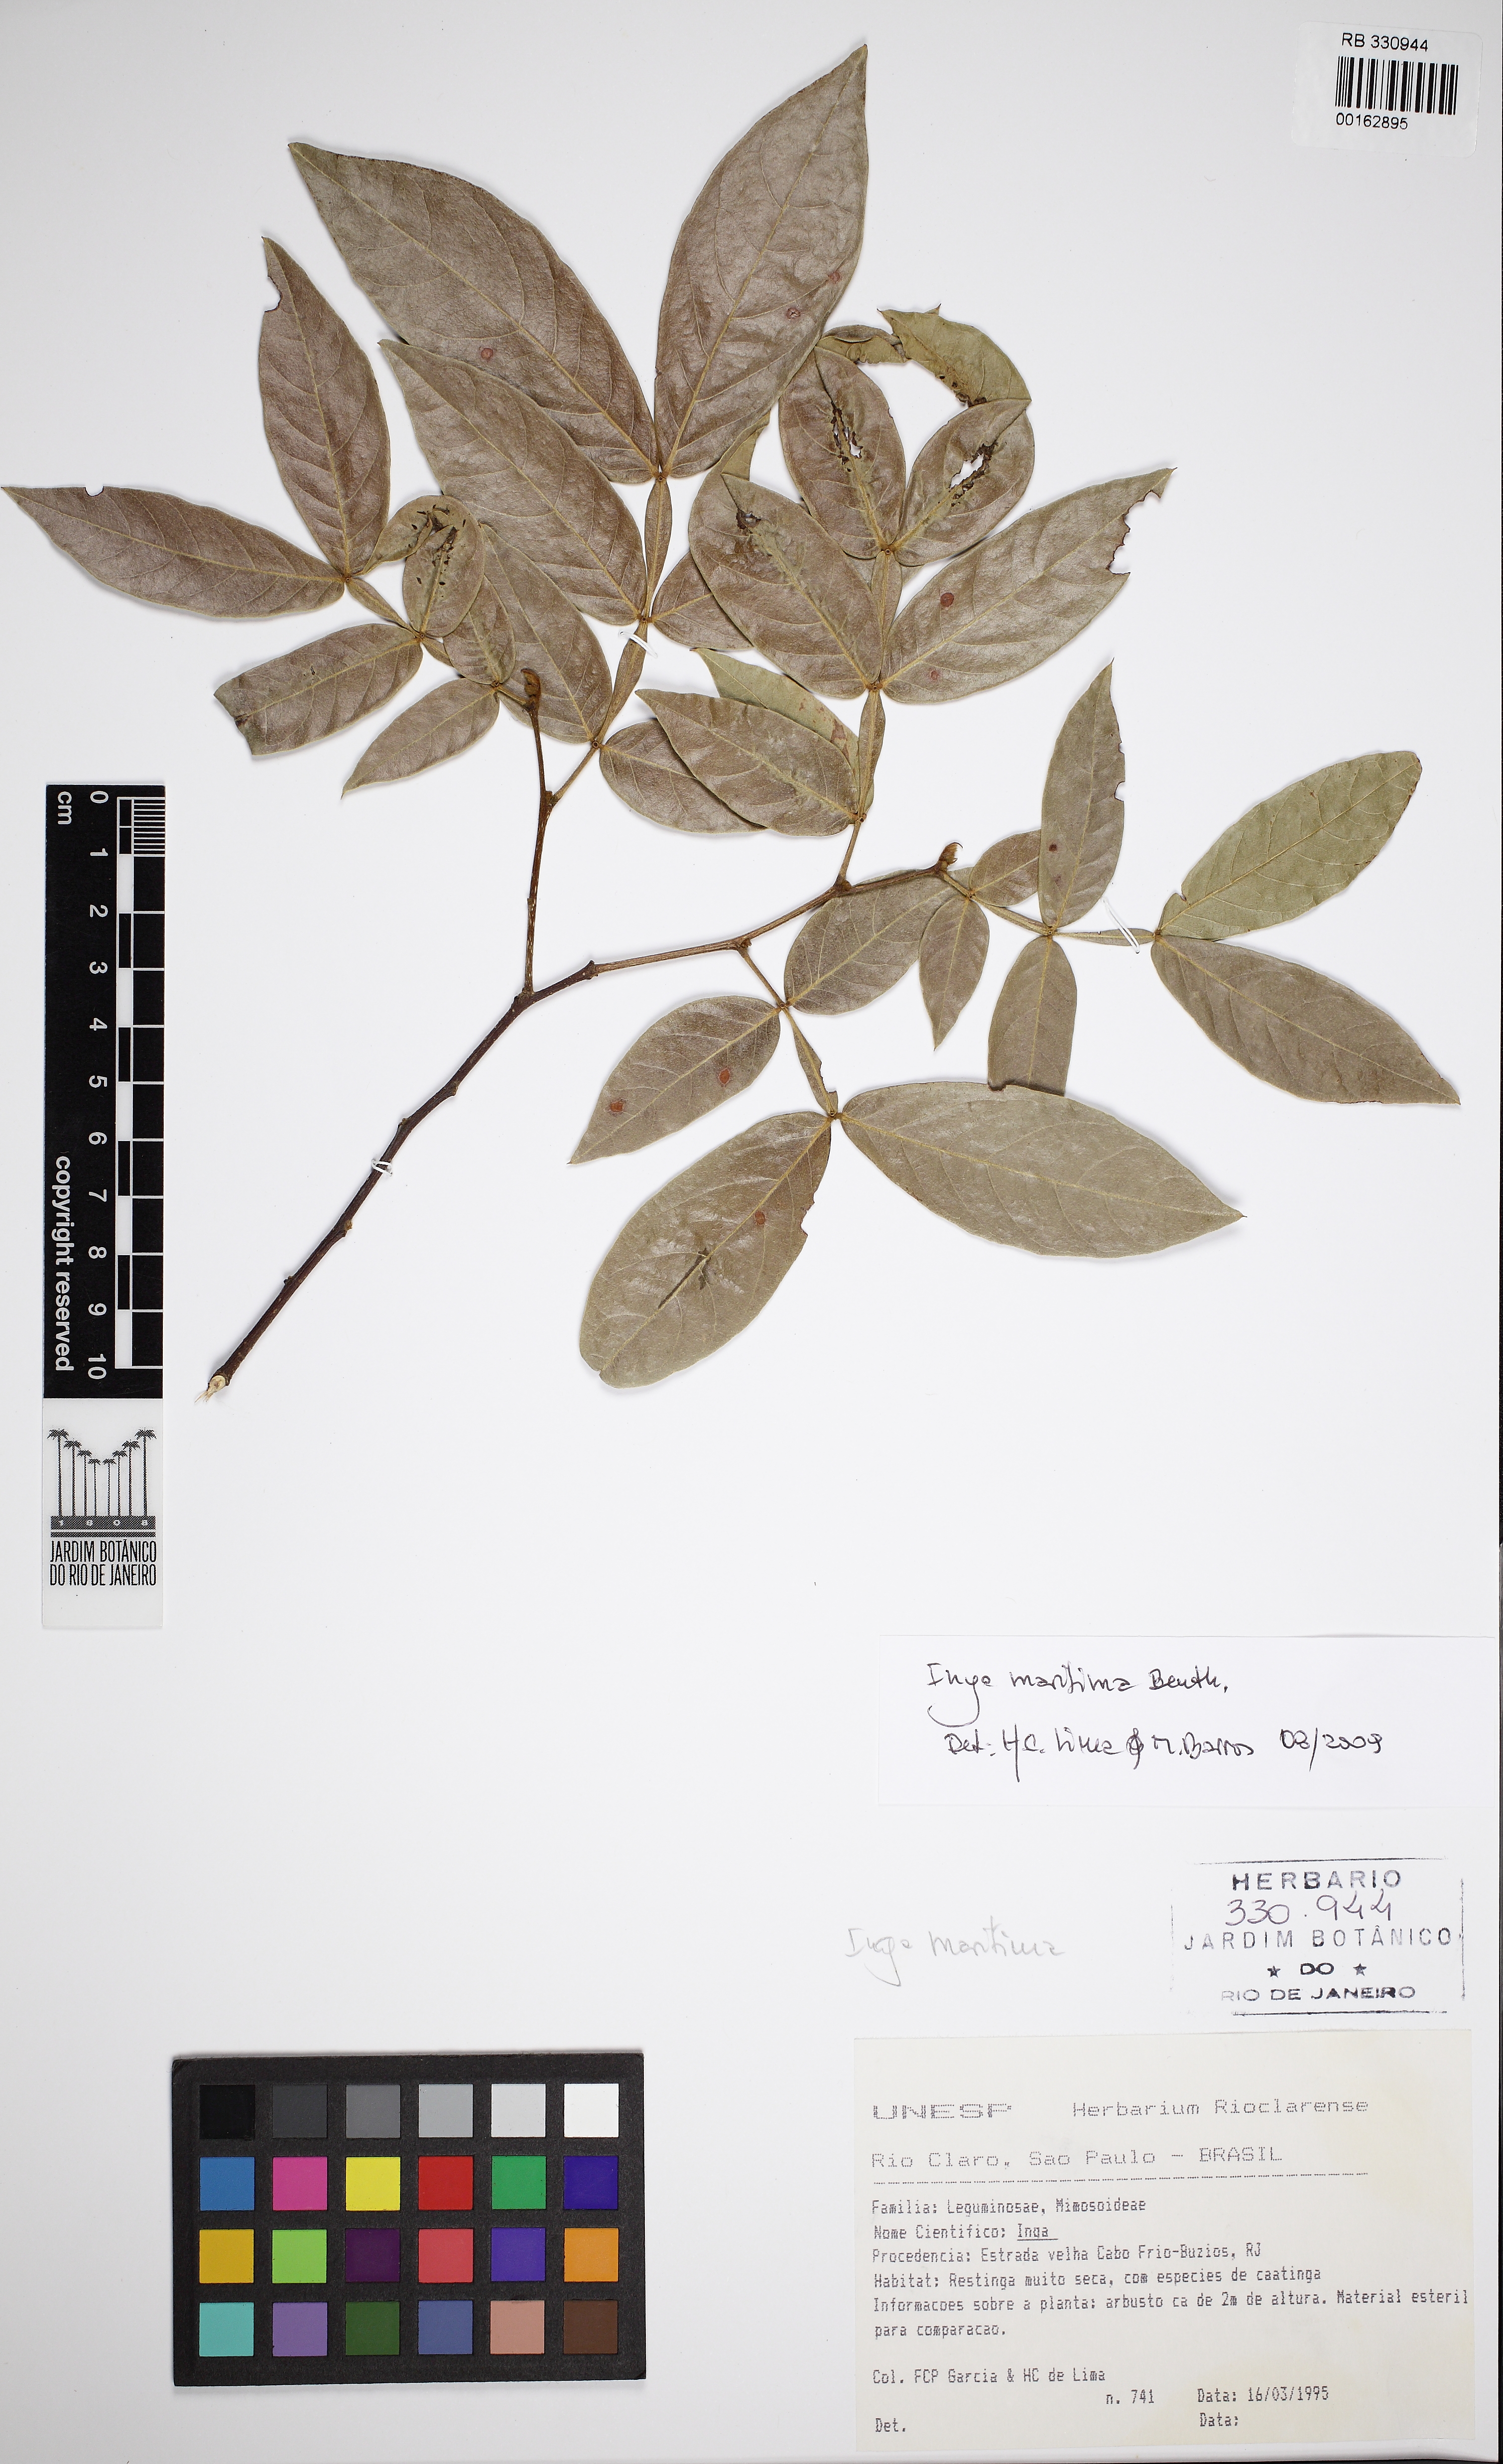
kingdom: Plantae
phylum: Tracheophyta
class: Magnoliopsida
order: Fabales
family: Fabaceae
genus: Inga
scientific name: Inga maritima
